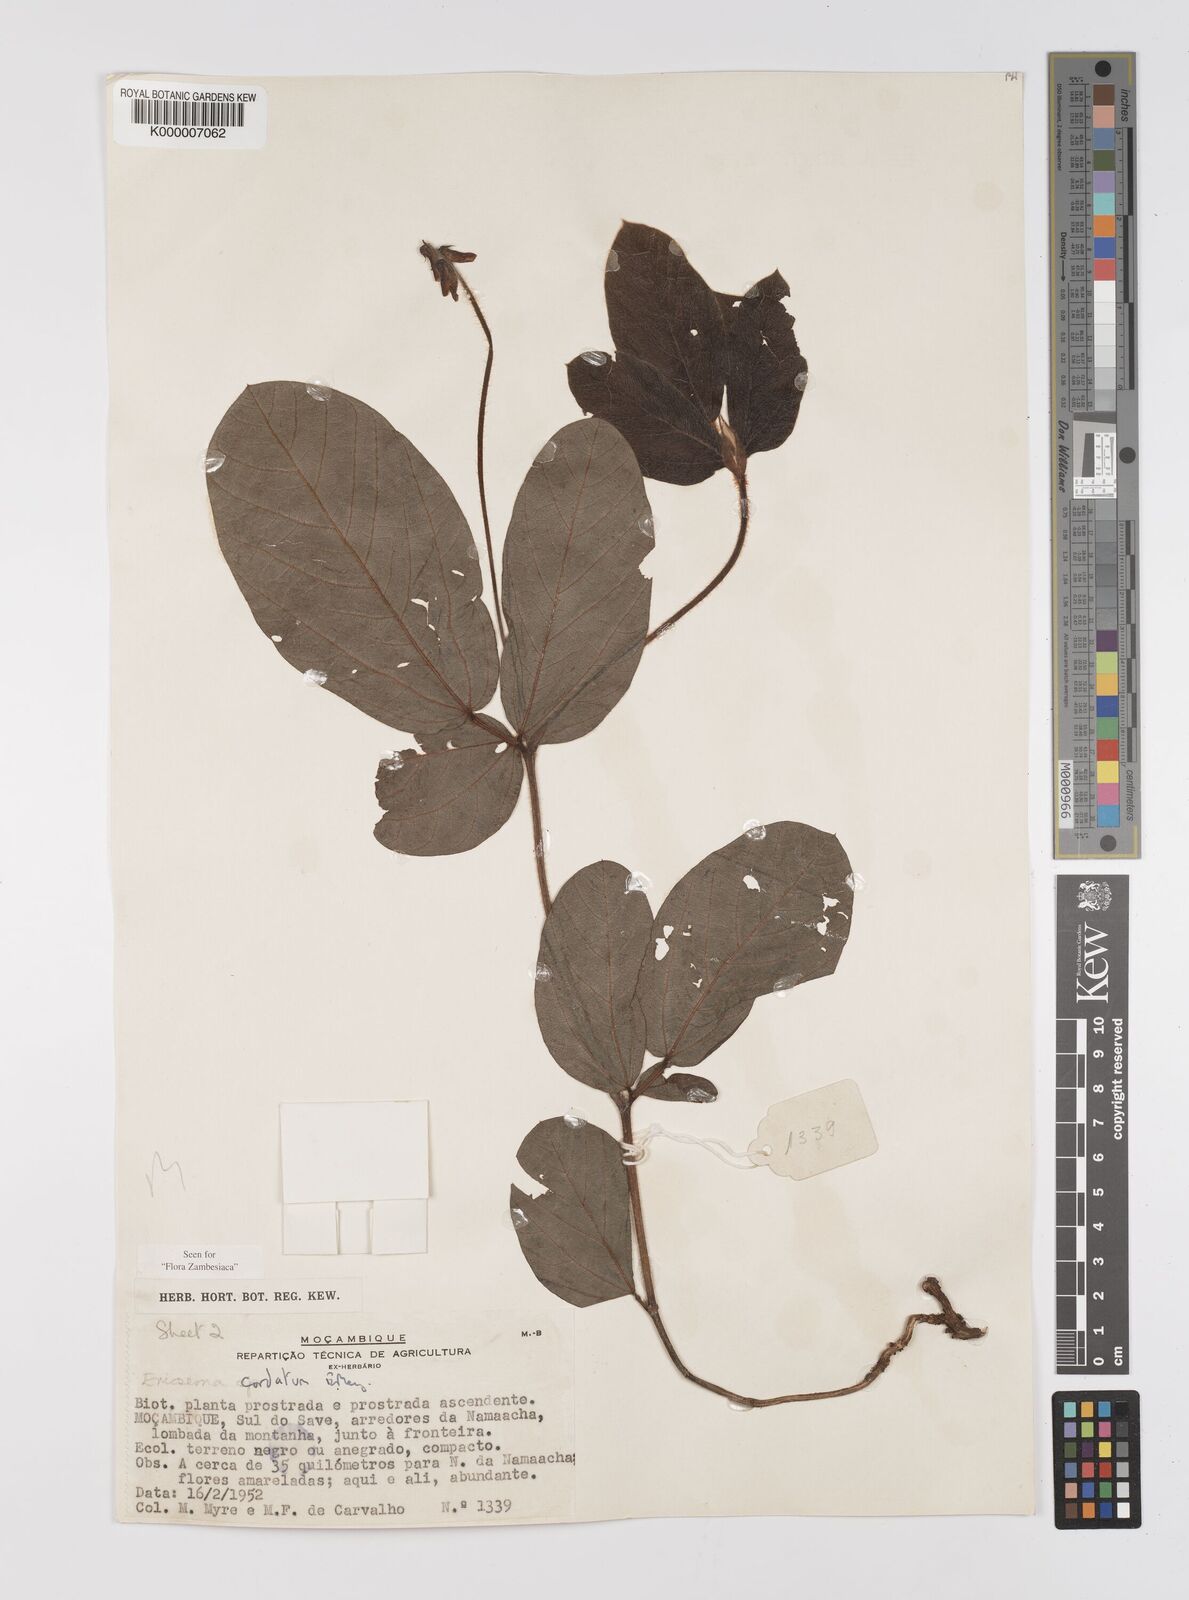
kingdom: Plantae
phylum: Tracheophyta
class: Magnoliopsida
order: Fabales
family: Fabaceae
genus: Eriosema
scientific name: Eriosema cordatum
